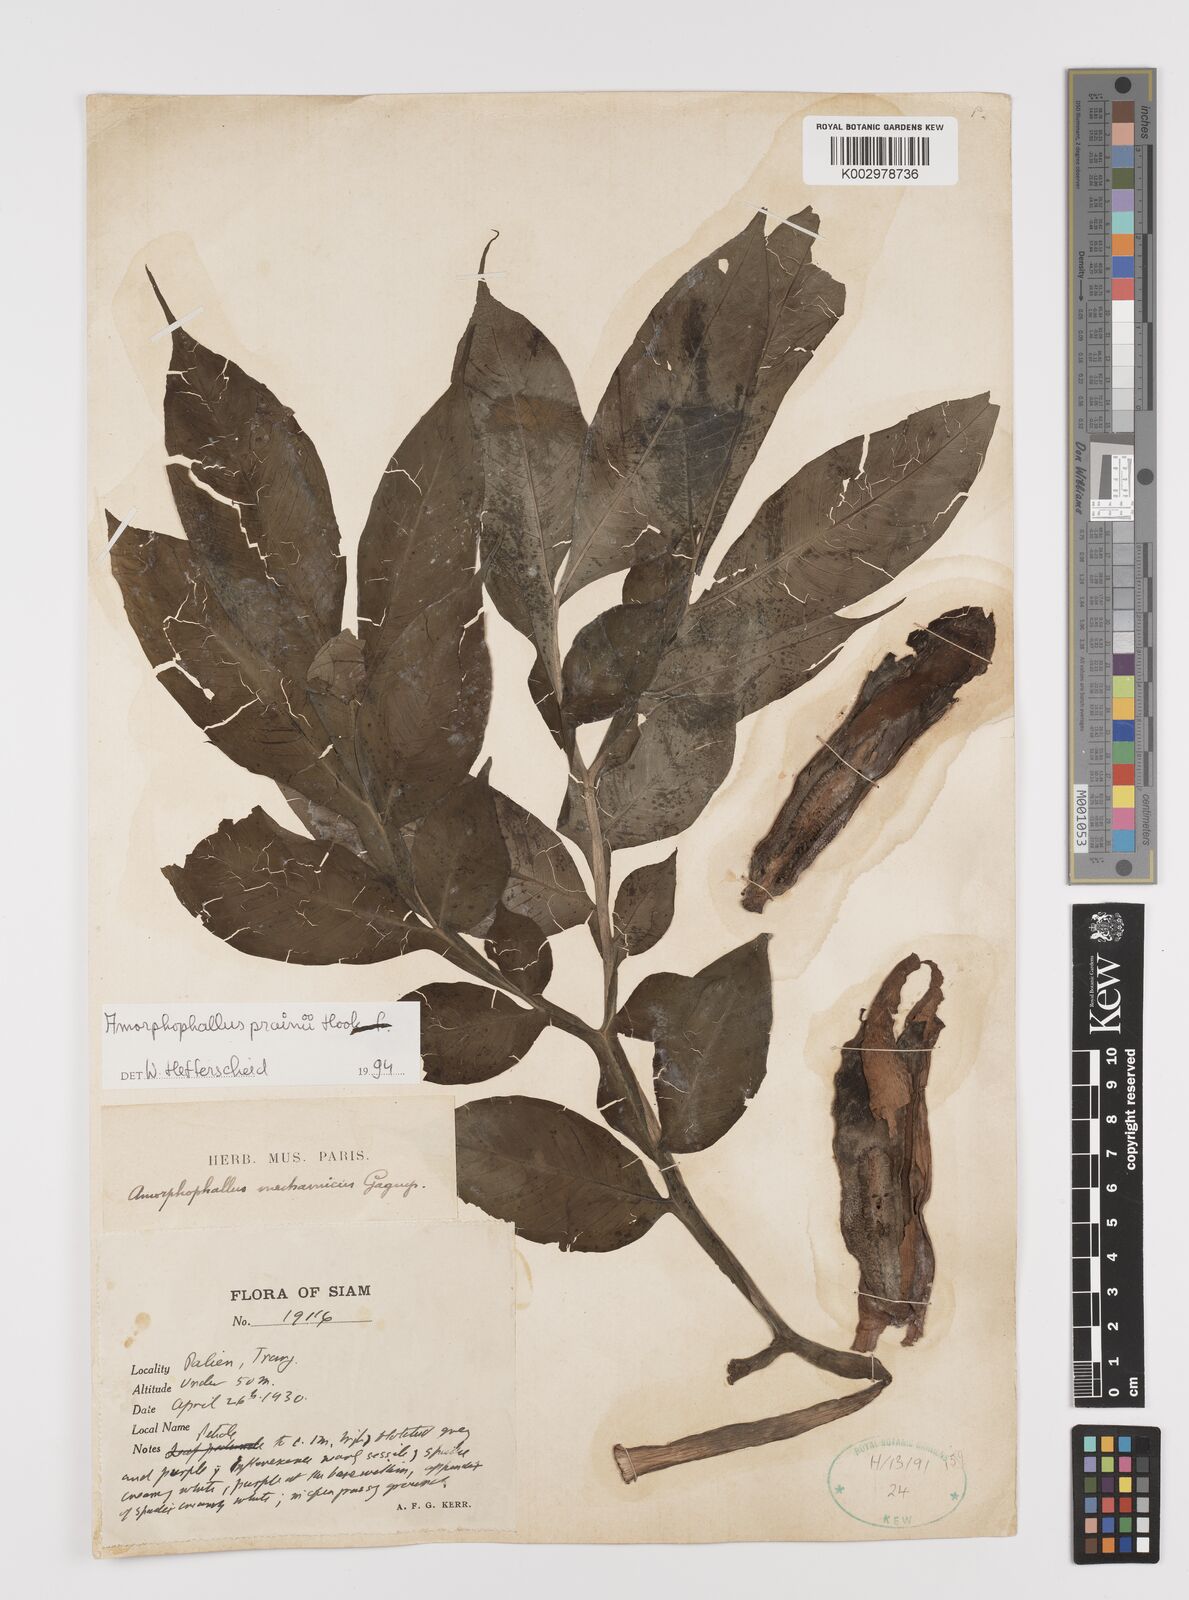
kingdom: Plantae
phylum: Tracheophyta
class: Liliopsida
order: Alismatales
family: Araceae
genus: Amorphophallus
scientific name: Amorphophallus prainii
